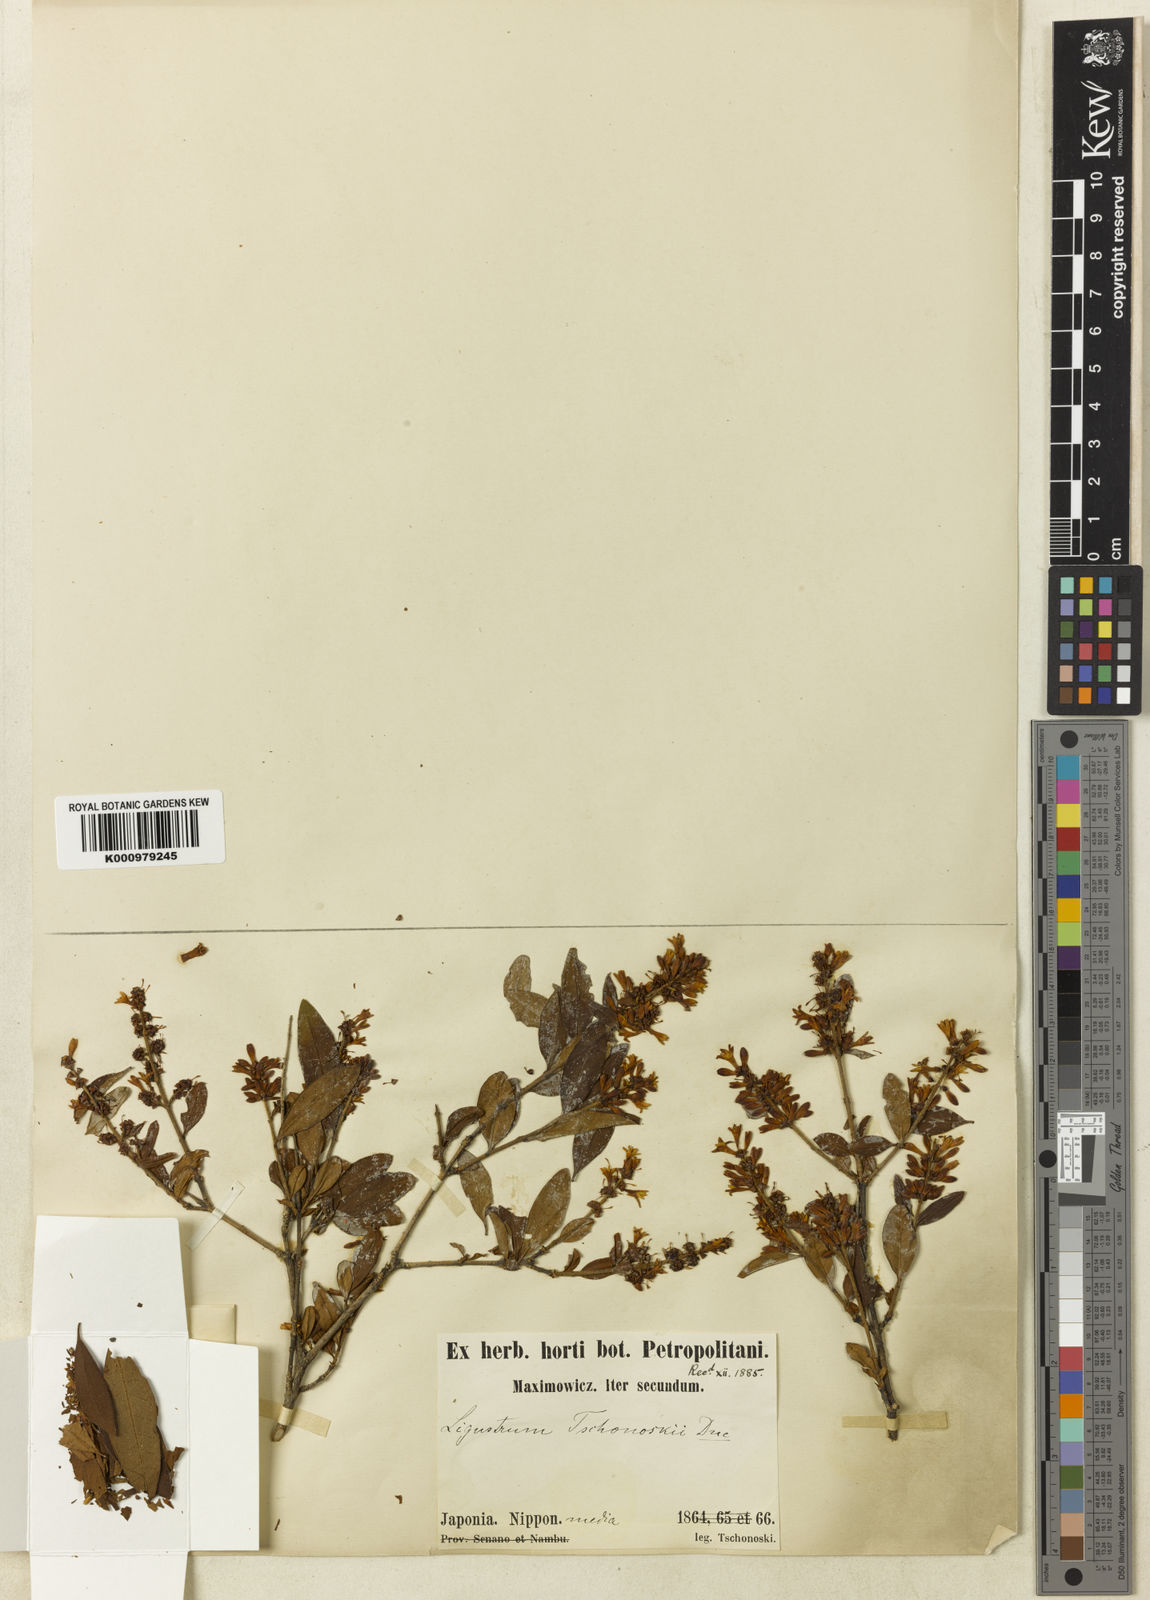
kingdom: Plantae
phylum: Tracheophyta
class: Magnoliopsida
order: Lamiales
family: Oleaceae
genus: Ligustrum
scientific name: Ligustrum tschonoskii
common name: Tschonosky privet
